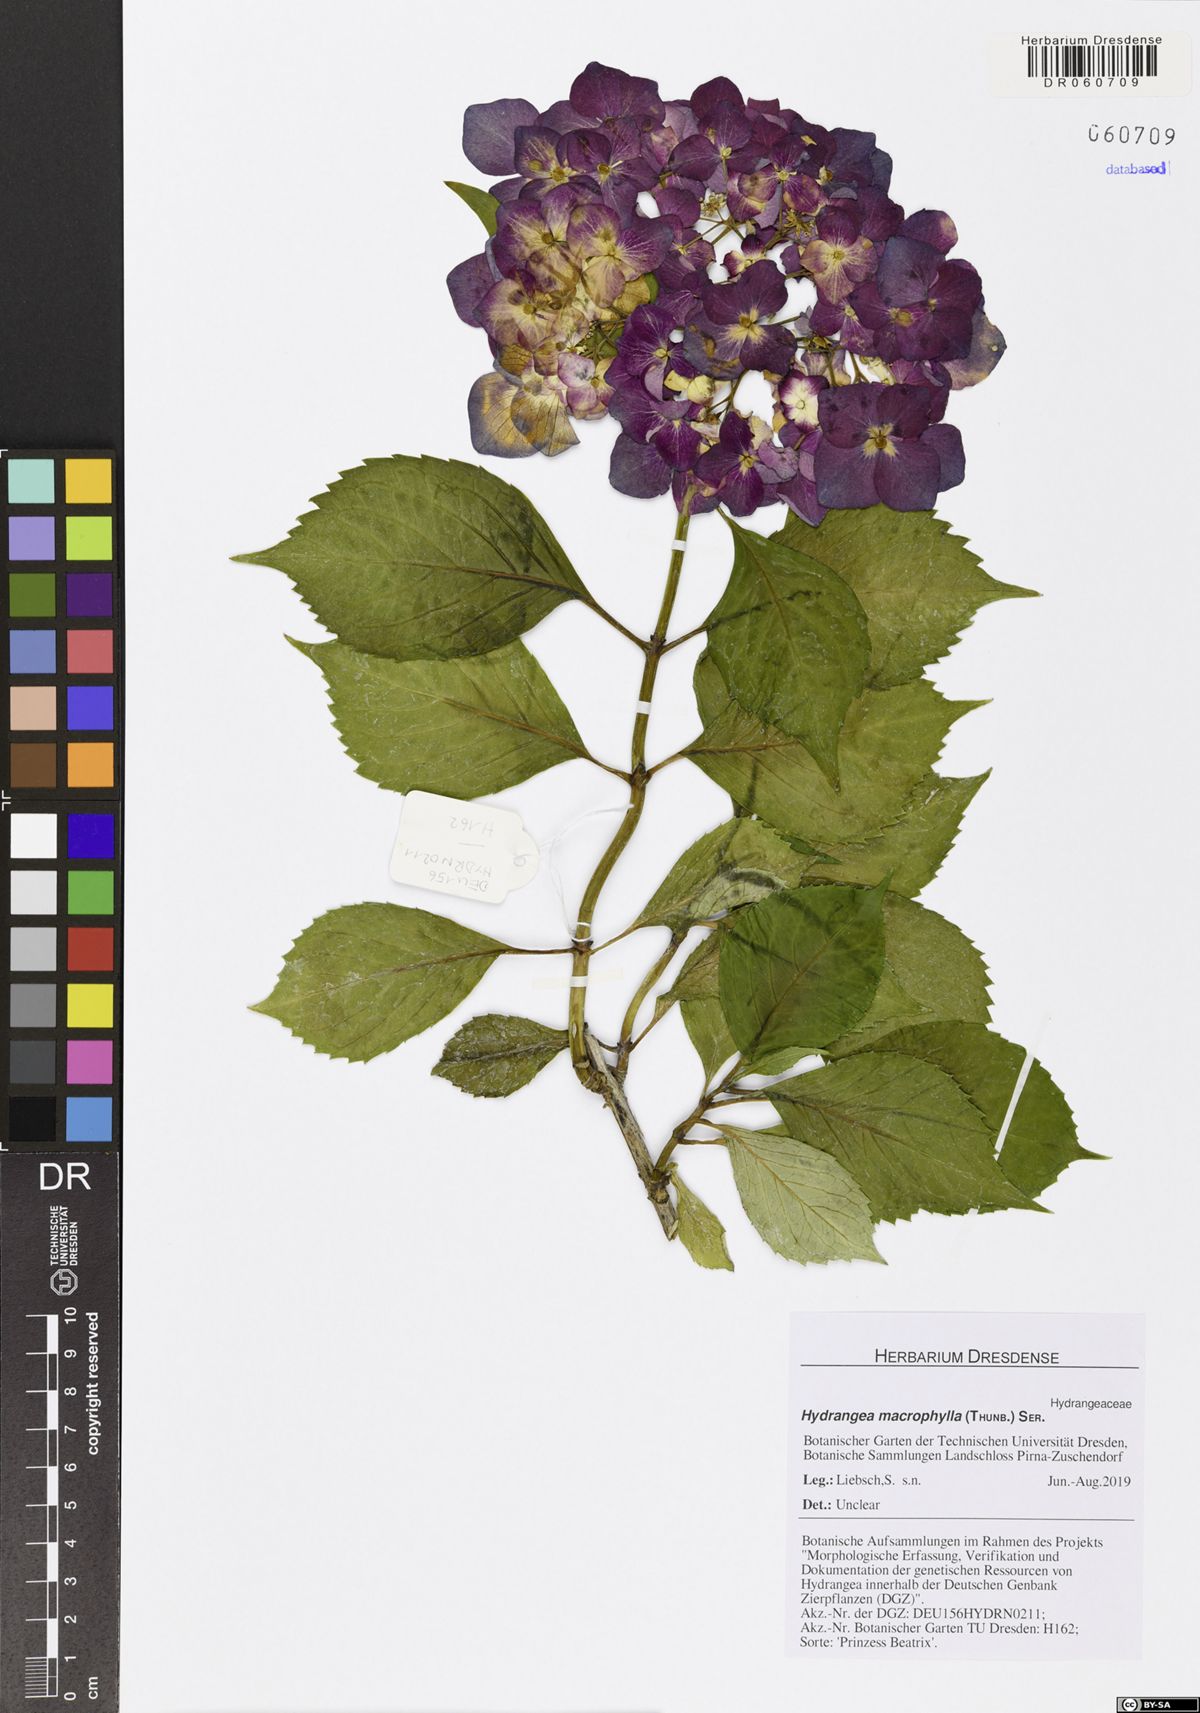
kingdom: Plantae
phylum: Tracheophyta
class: Magnoliopsida
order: Cornales
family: Hydrangeaceae
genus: Hydrangea
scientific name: Hydrangea macrophylla
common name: Hydrangea
